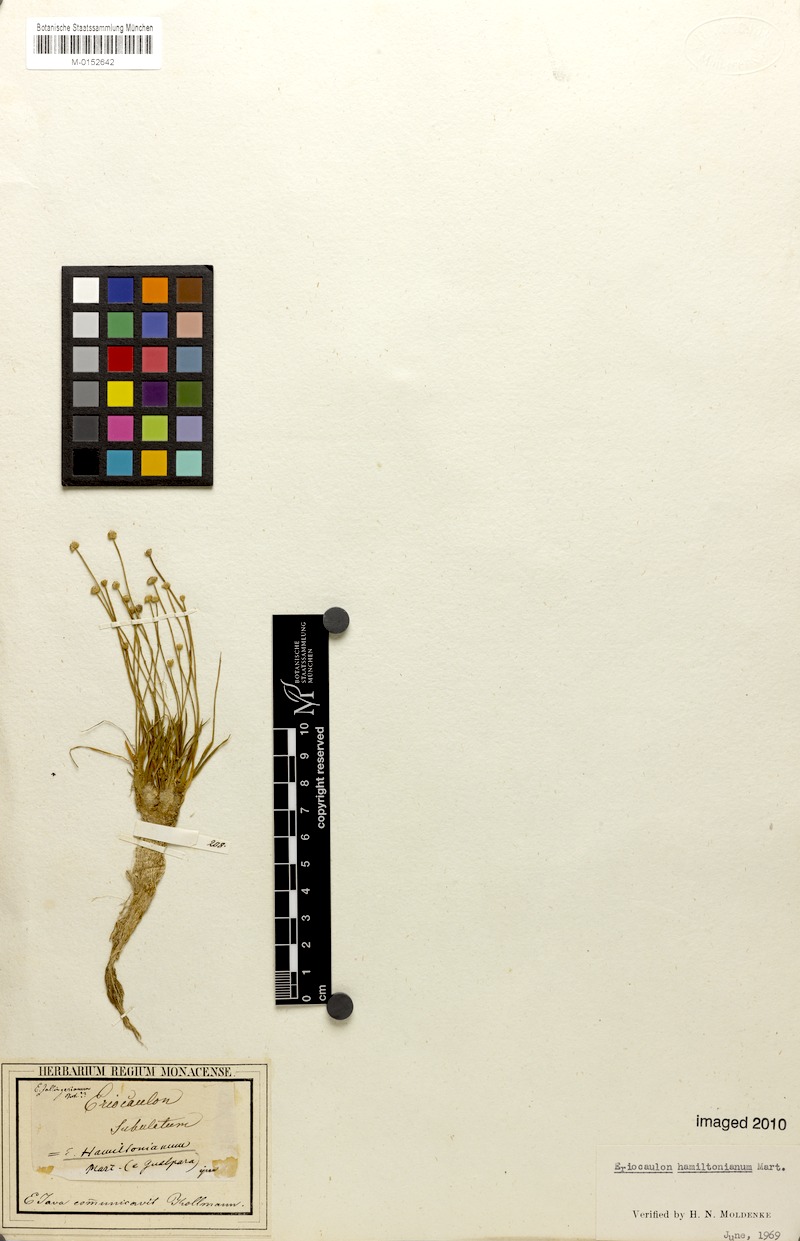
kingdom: Plantae
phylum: Tracheophyta
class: Liliopsida
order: Poales
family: Eriocaulaceae
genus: Eriocaulon
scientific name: Eriocaulon hamiltonianum
